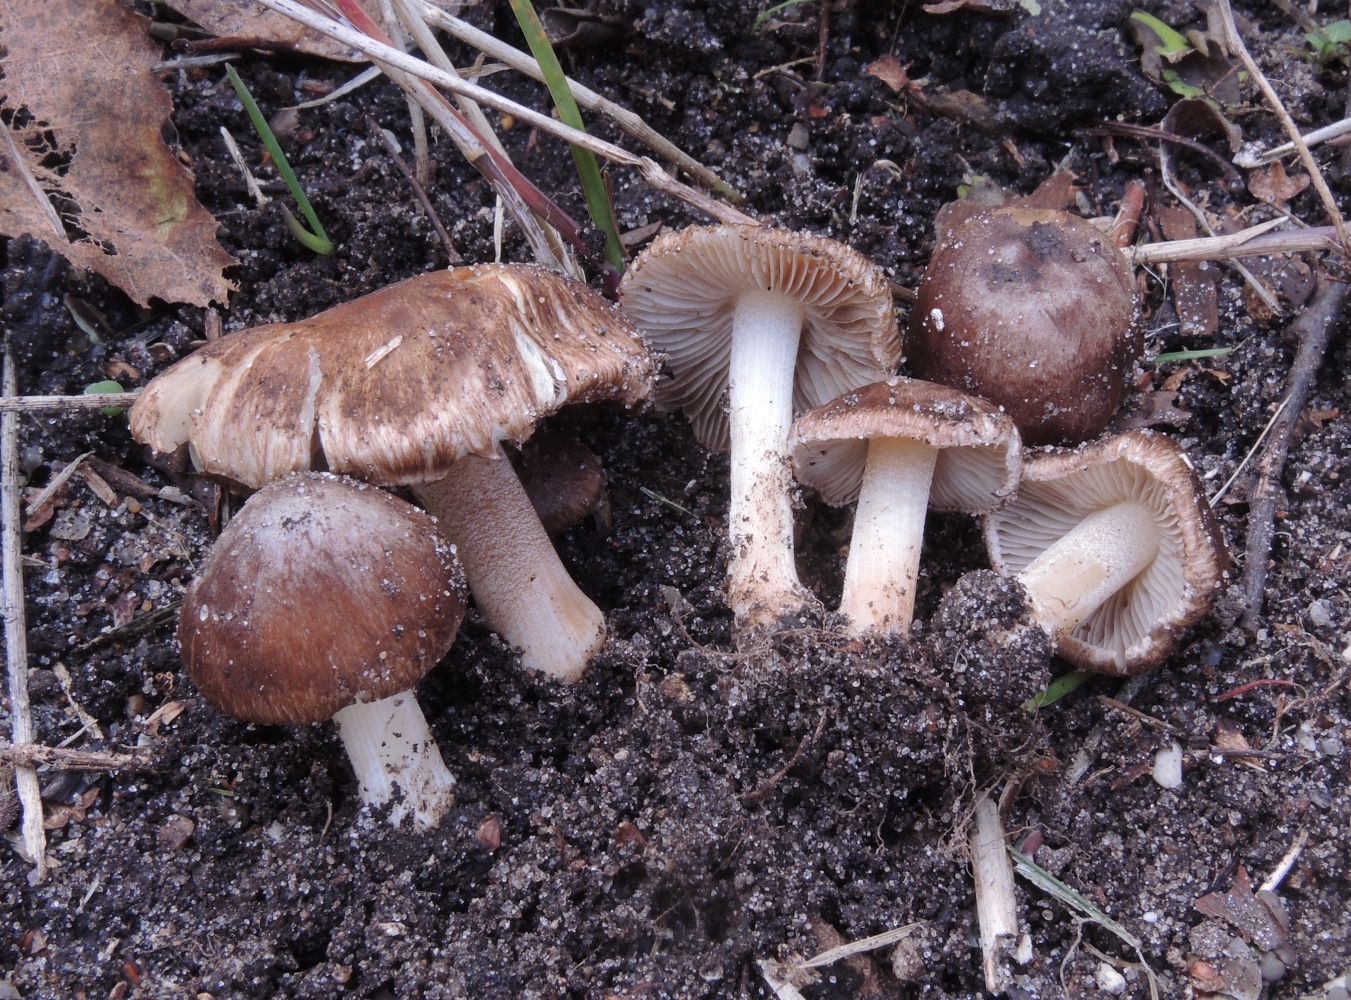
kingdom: Fungi
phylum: Basidiomycota
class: Agaricomycetes
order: Agaricales
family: Inocybaceae
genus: Inocybe
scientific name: Inocybe splendens
